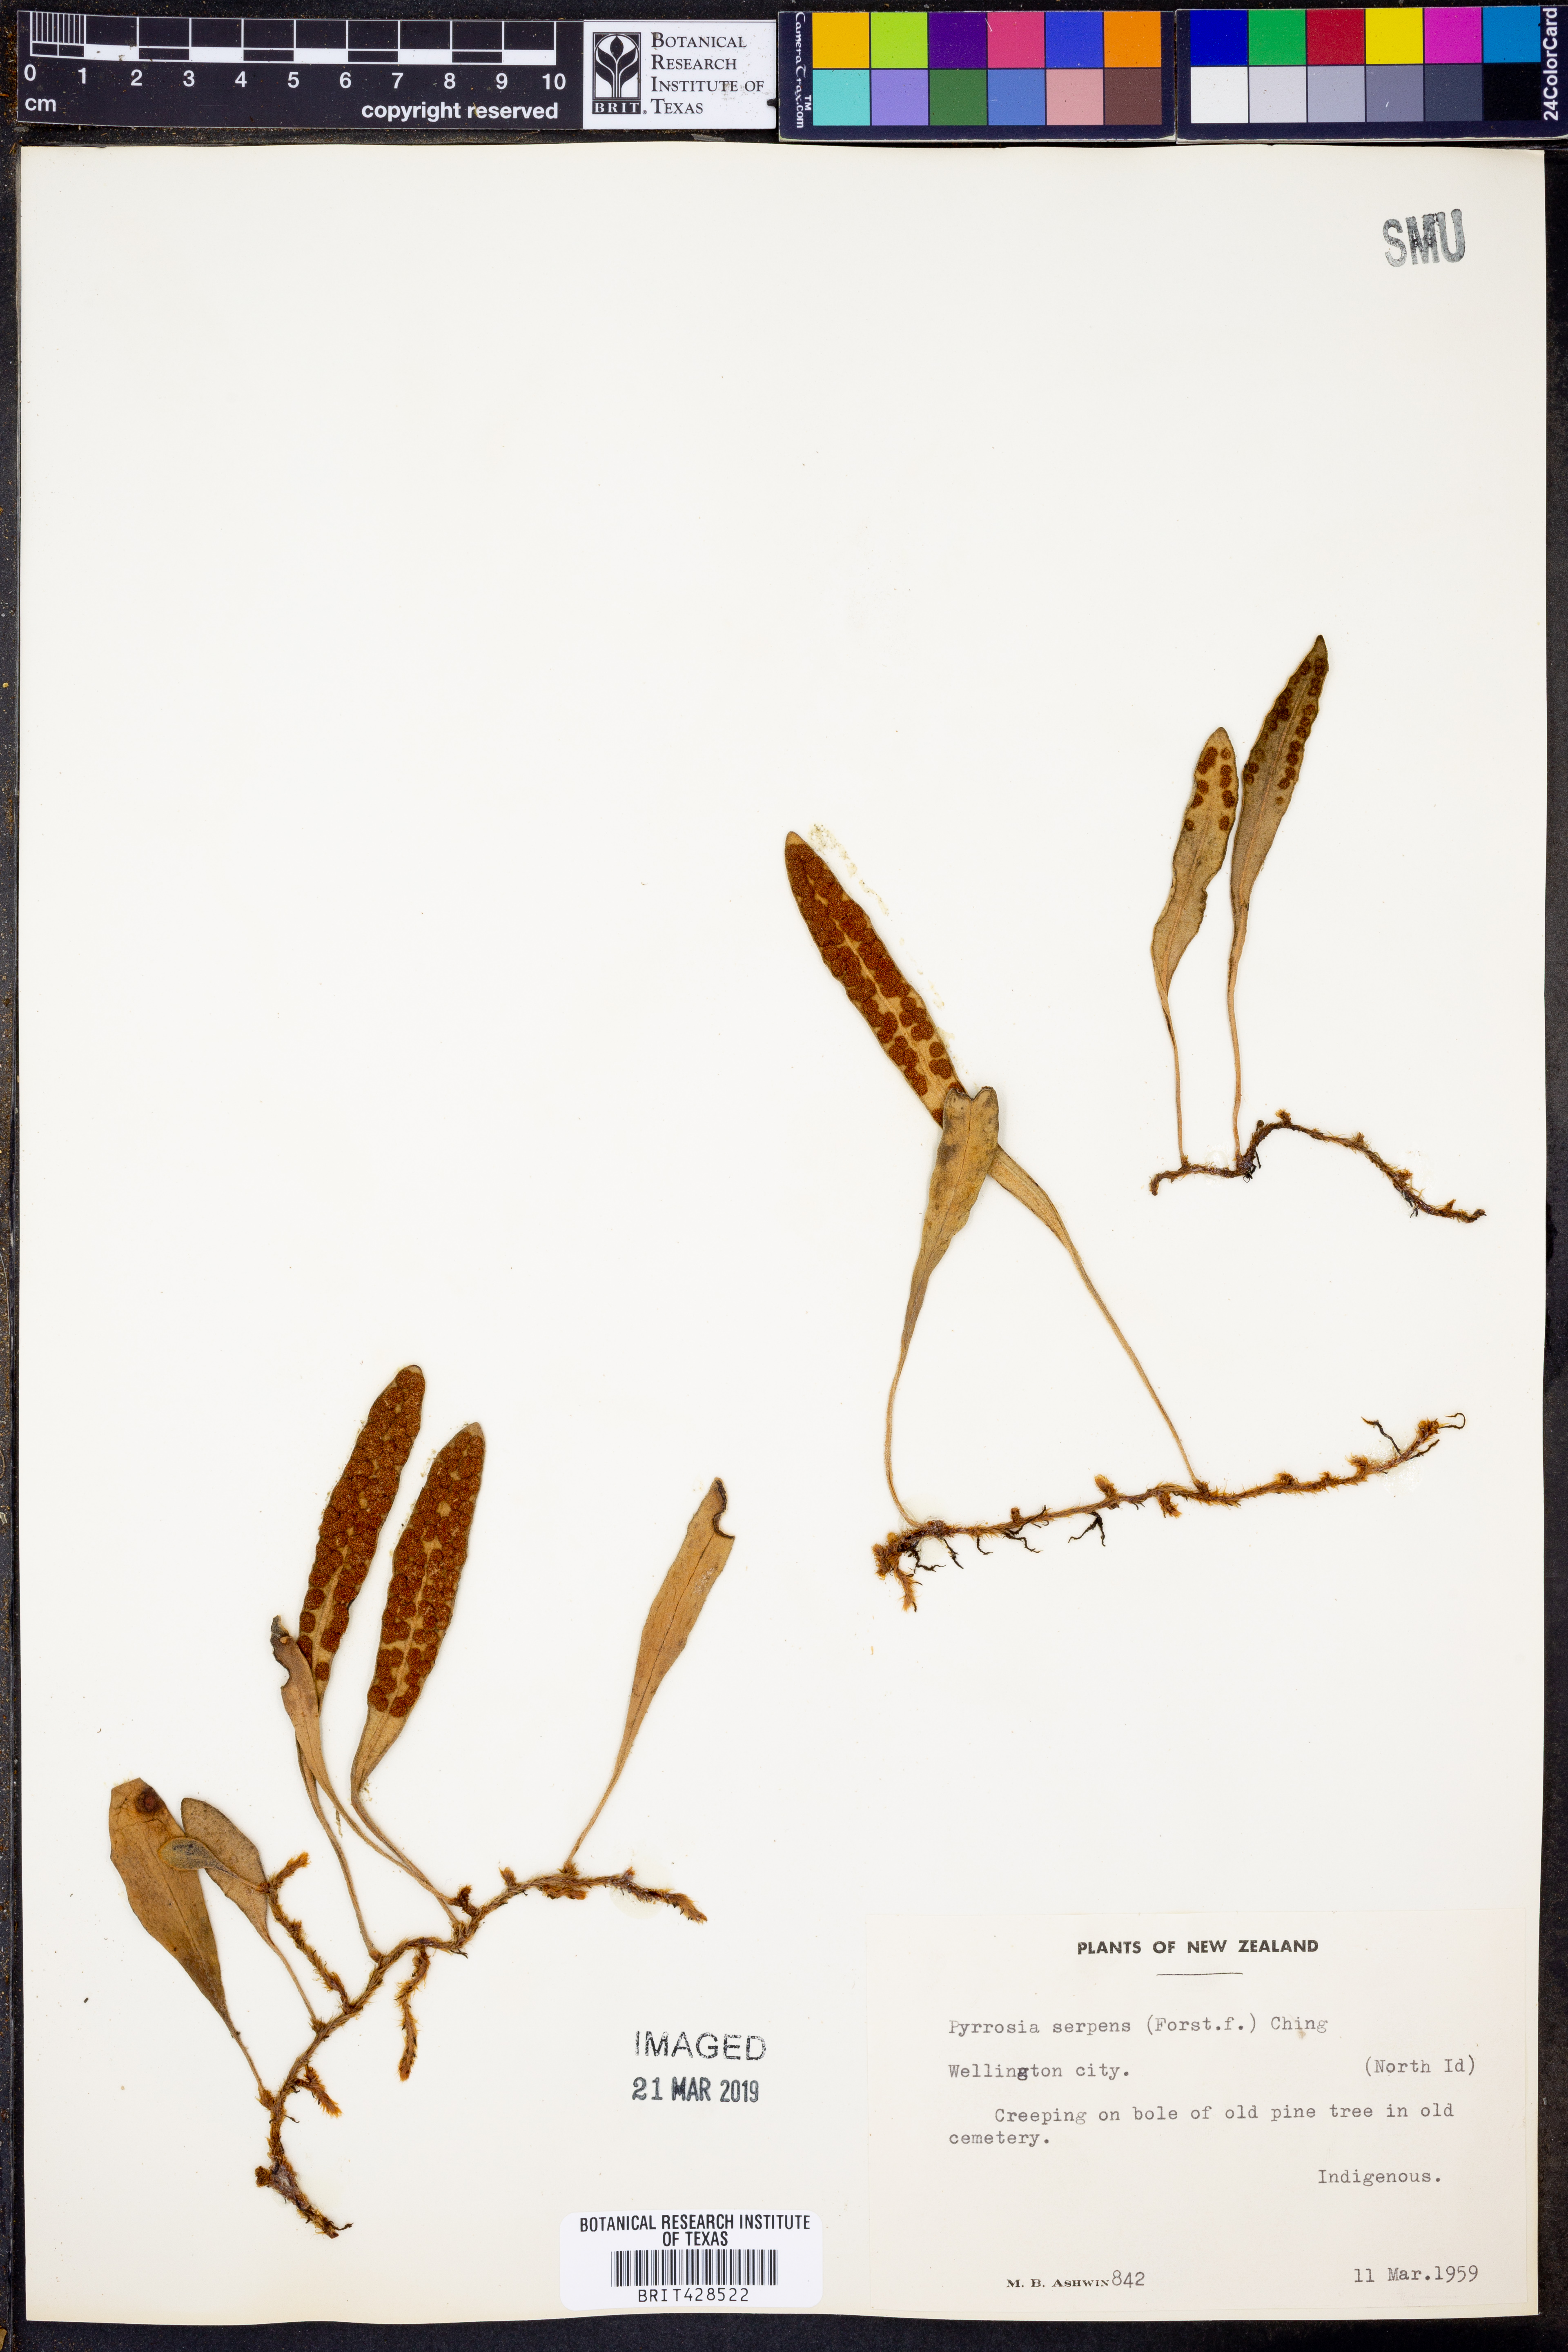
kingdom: Plantae
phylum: Tracheophyta
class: Polypodiopsida
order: Polypodiales
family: Polypodiaceae
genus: Pyrrosia
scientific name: Pyrrosia serpens
